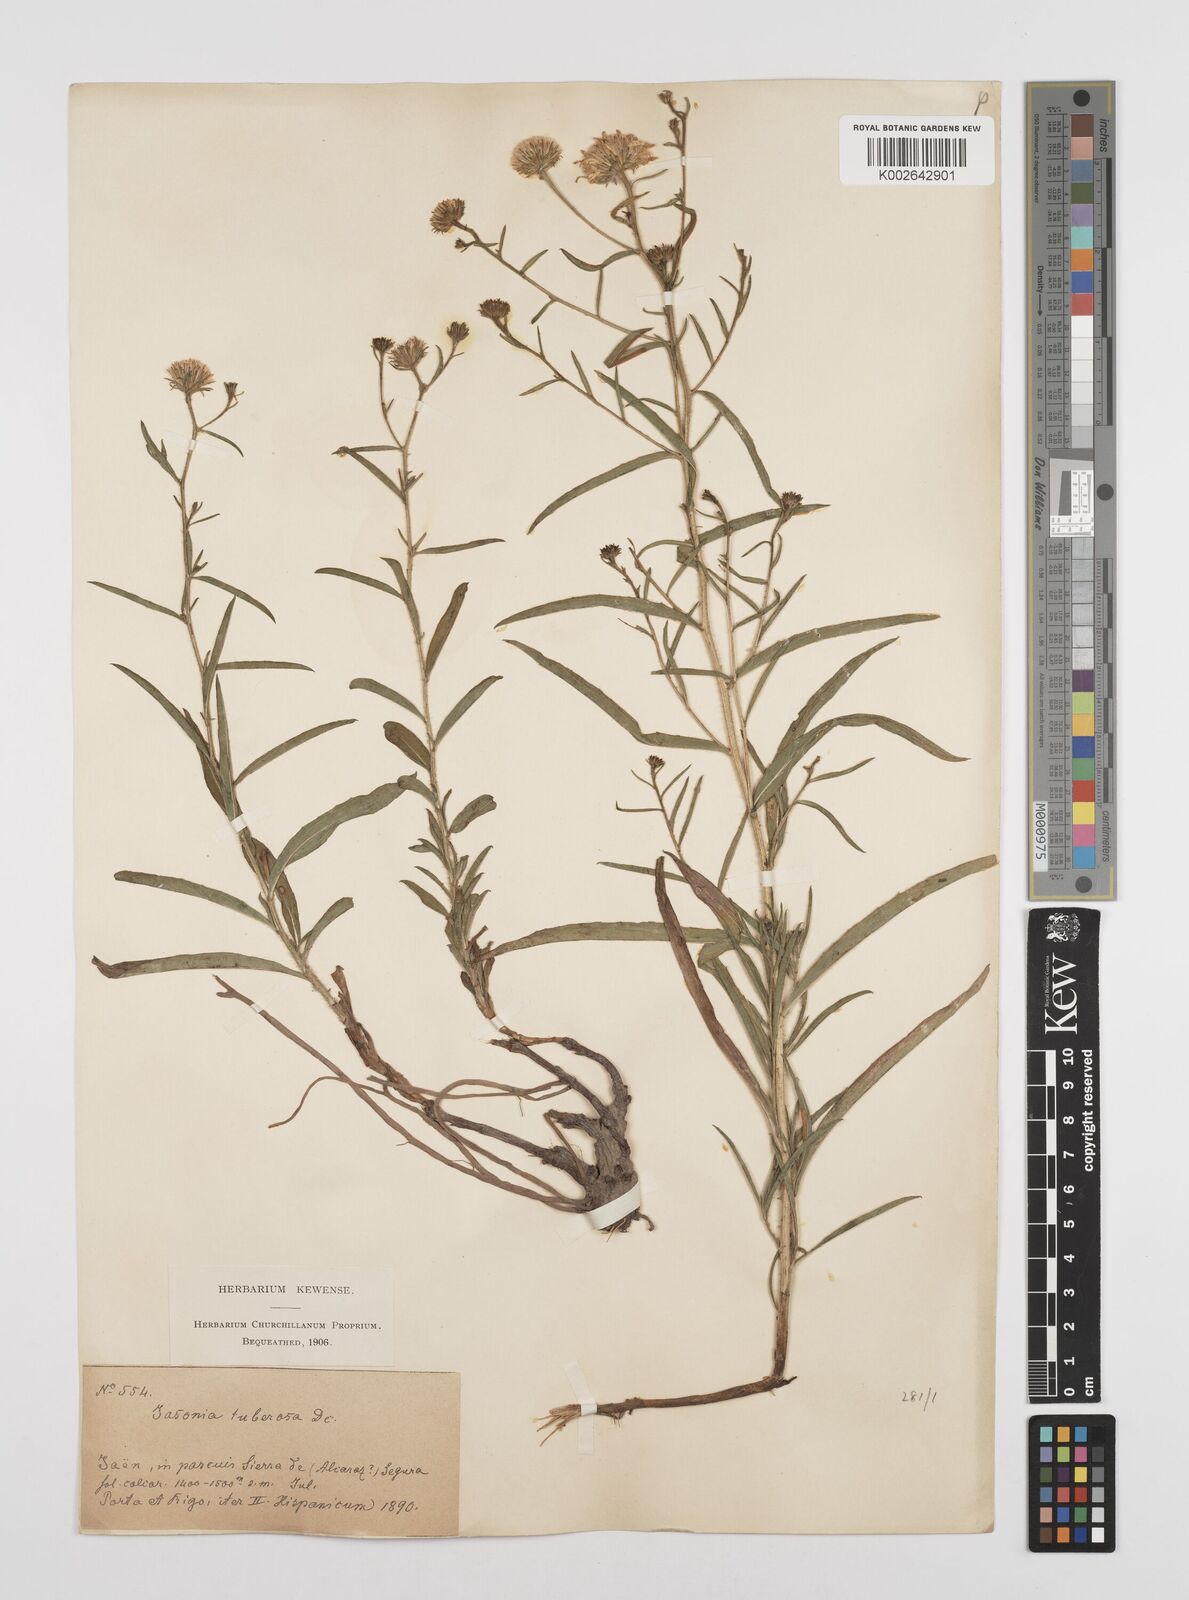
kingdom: Plantae
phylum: Tracheophyta
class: Magnoliopsida
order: Asterales
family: Asteraceae
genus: Jasonia
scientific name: Jasonia tuberosa
